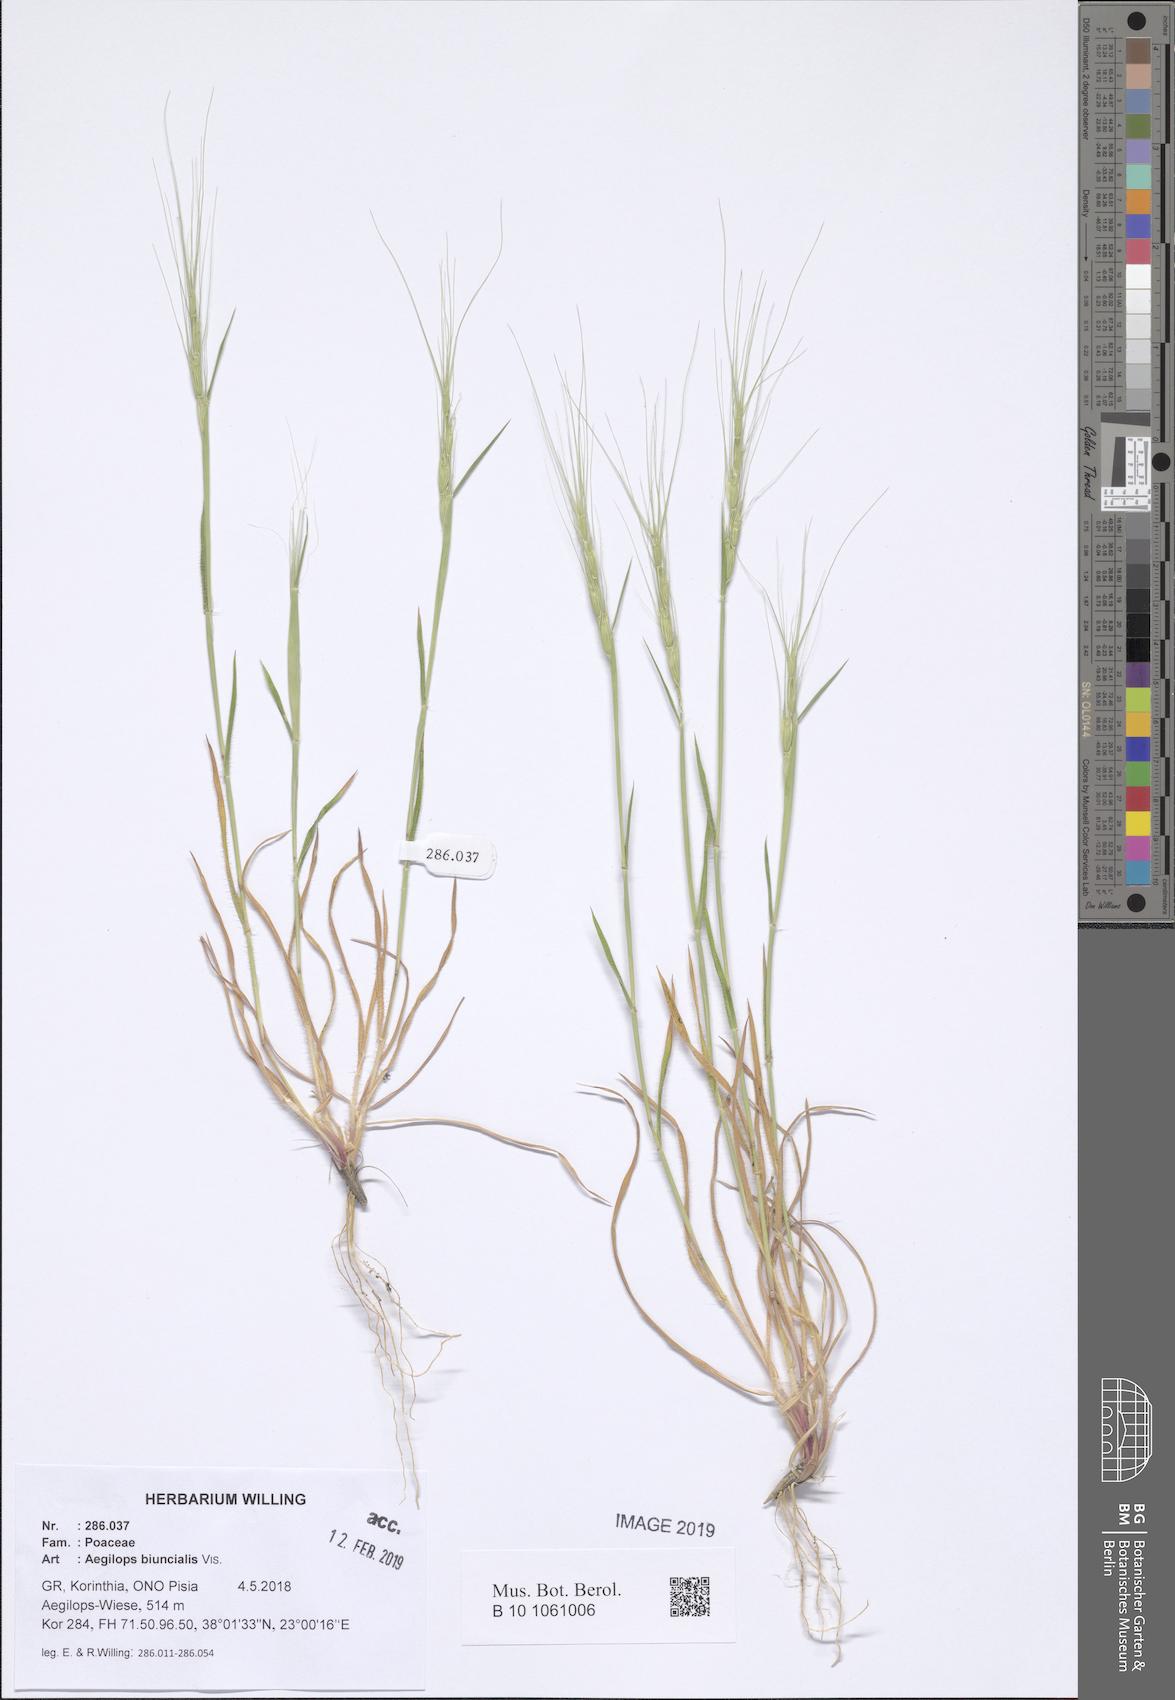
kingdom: Plantae
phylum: Tracheophyta
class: Liliopsida
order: Poales
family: Poaceae
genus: Aegilops
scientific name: Aegilops biuncialis
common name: Mediterranean aegilops
